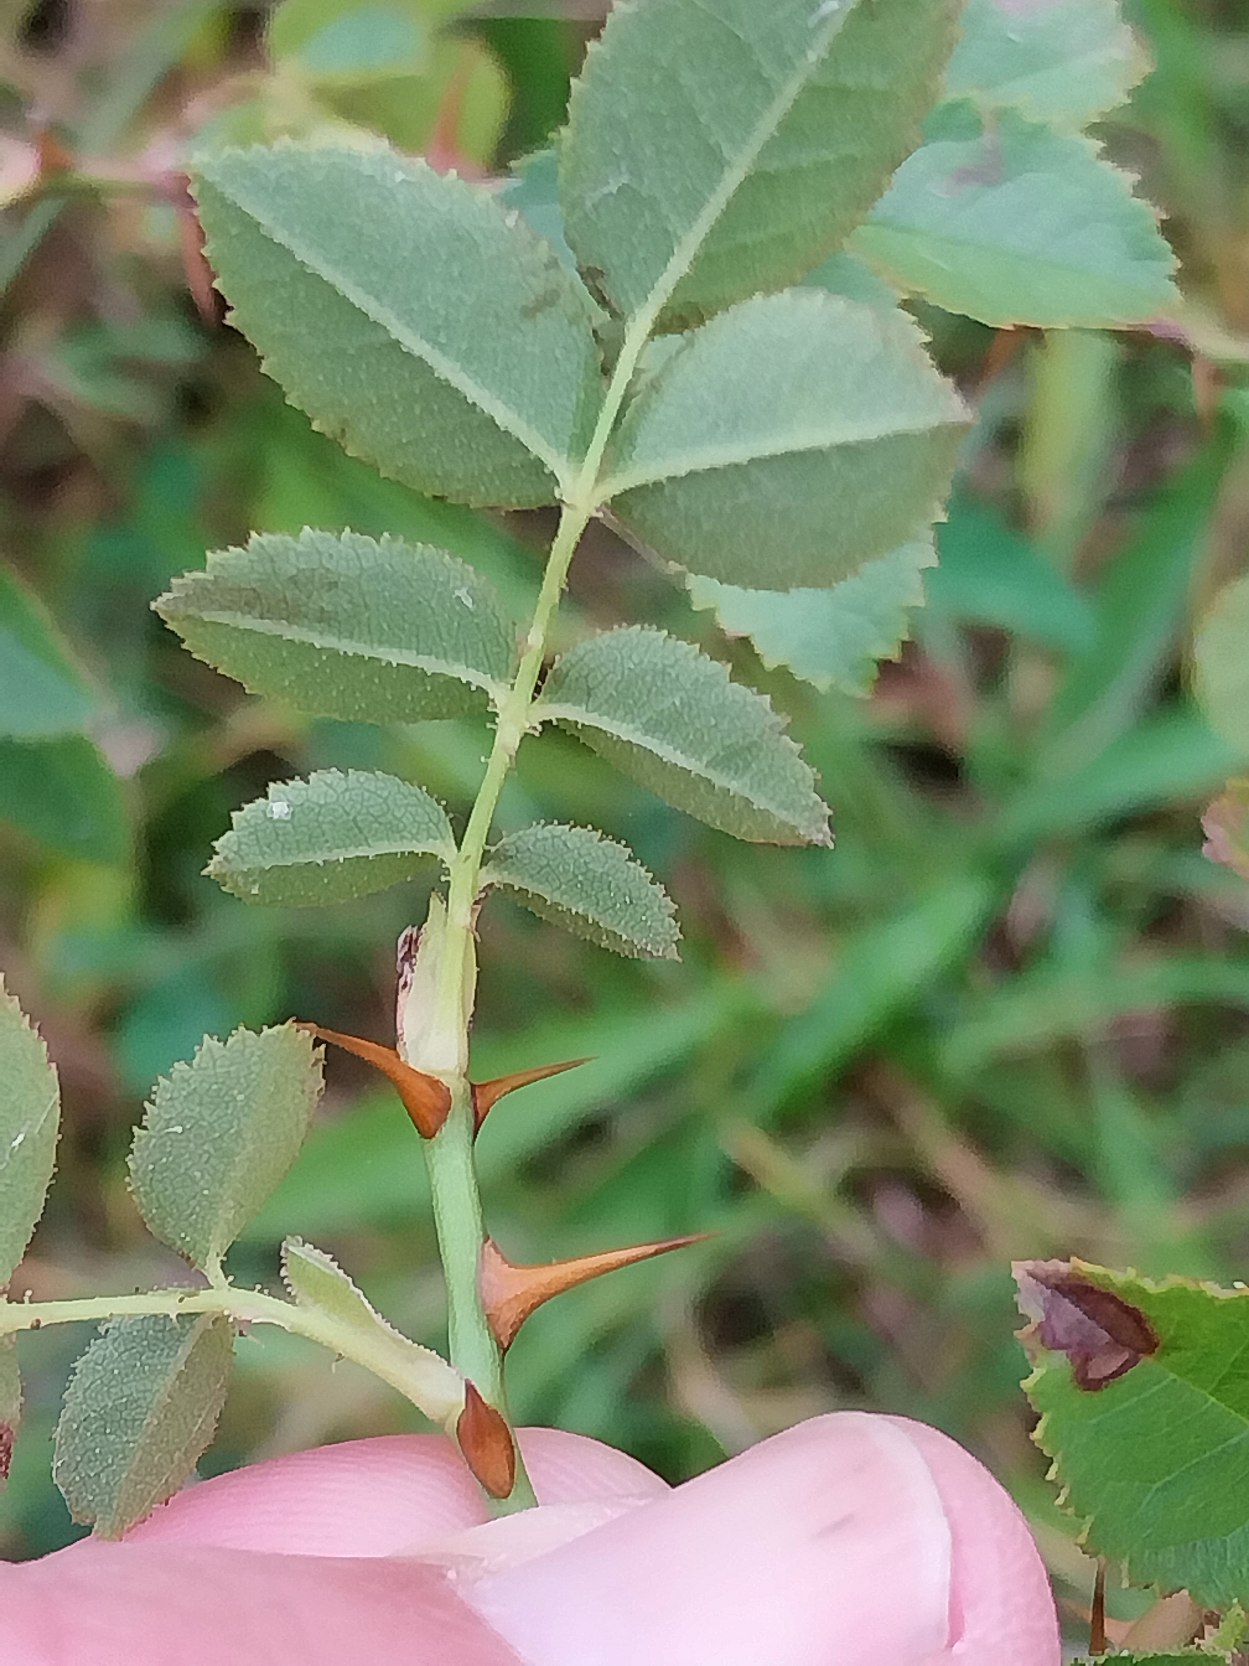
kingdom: Plantae
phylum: Tracheophyta
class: Magnoliopsida
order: Rosales
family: Rosaceae
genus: Rosa
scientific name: Rosa rubiginosa
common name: Æble-rose
